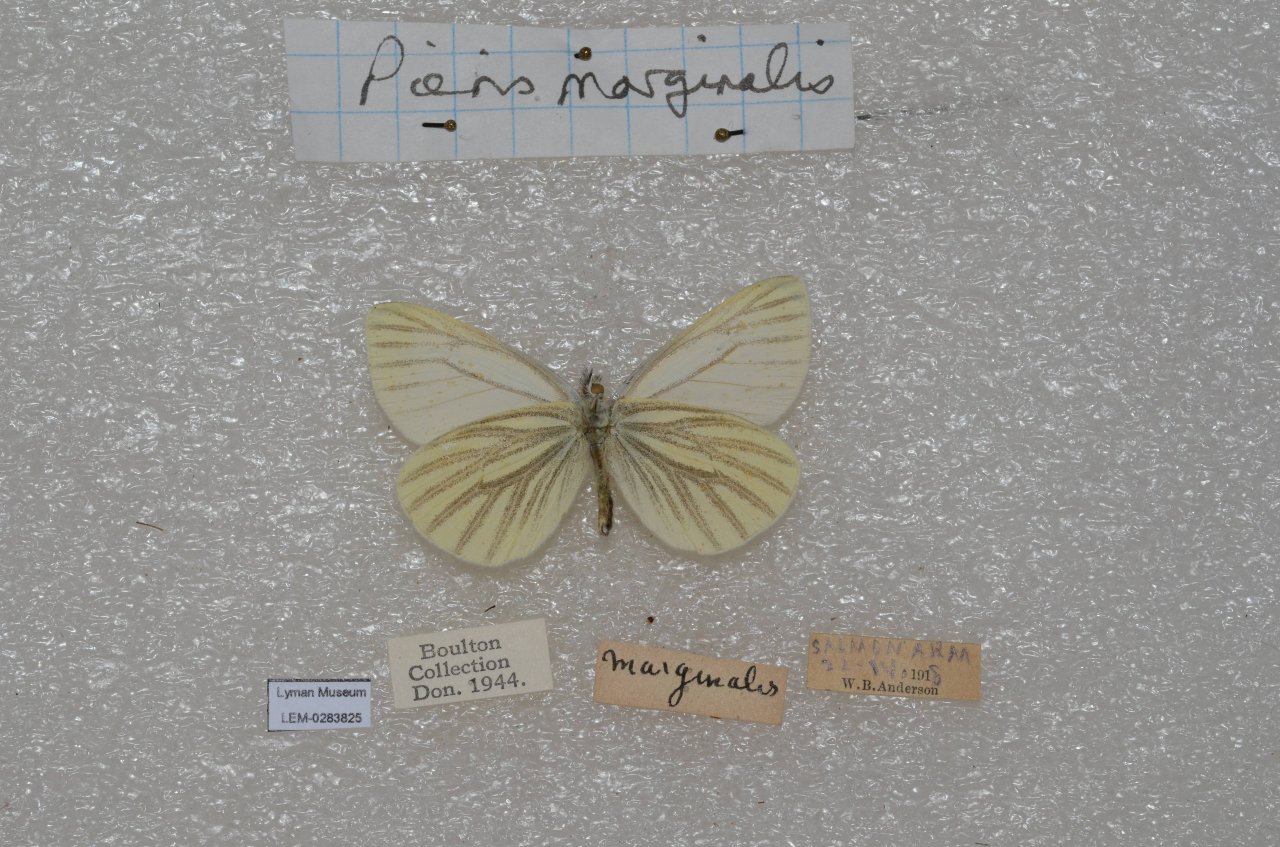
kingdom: Animalia
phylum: Arthropoda
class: Insecta
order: Lepidoptera
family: Pieridae
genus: Pieris
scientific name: Pieris marginalis
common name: Margined White
